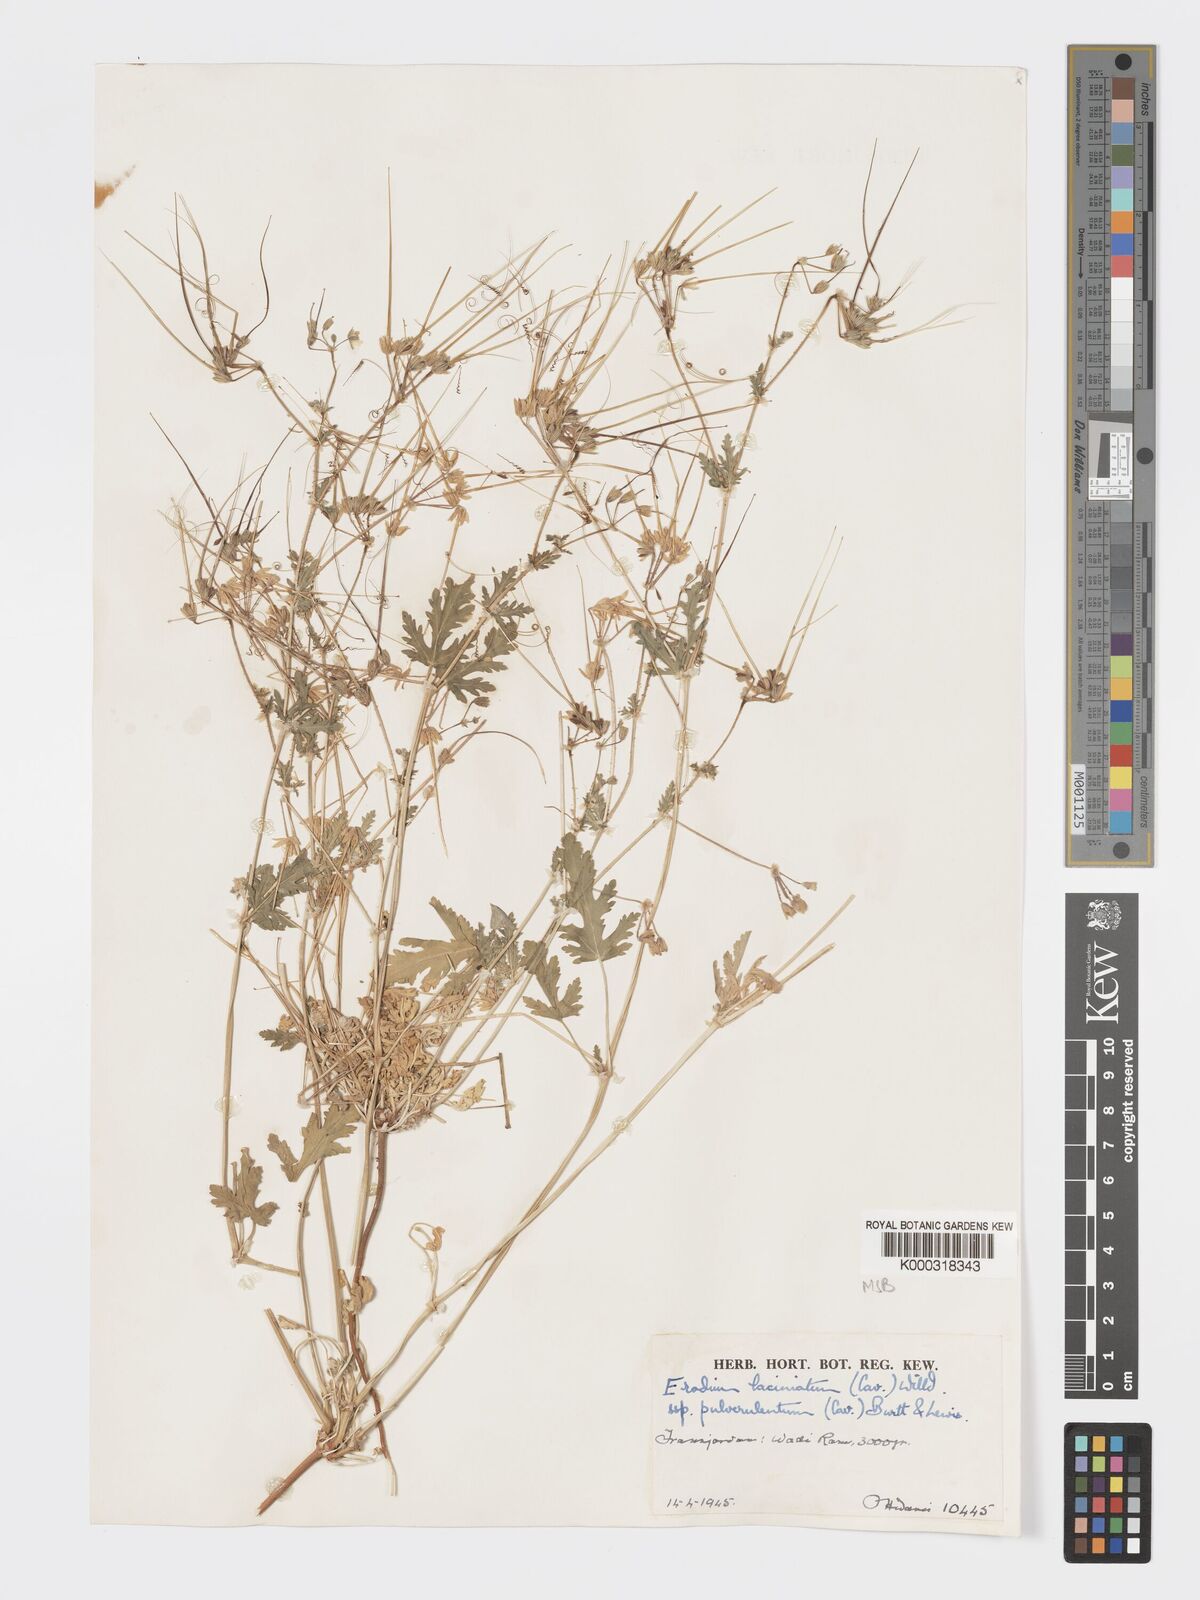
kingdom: Plantae
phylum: Tracheophyta
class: Magnoliopsida
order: Geraniales
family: Geraniaceae
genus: Erodium
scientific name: Erodium laciniatum
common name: Cutleaf stork's bill
